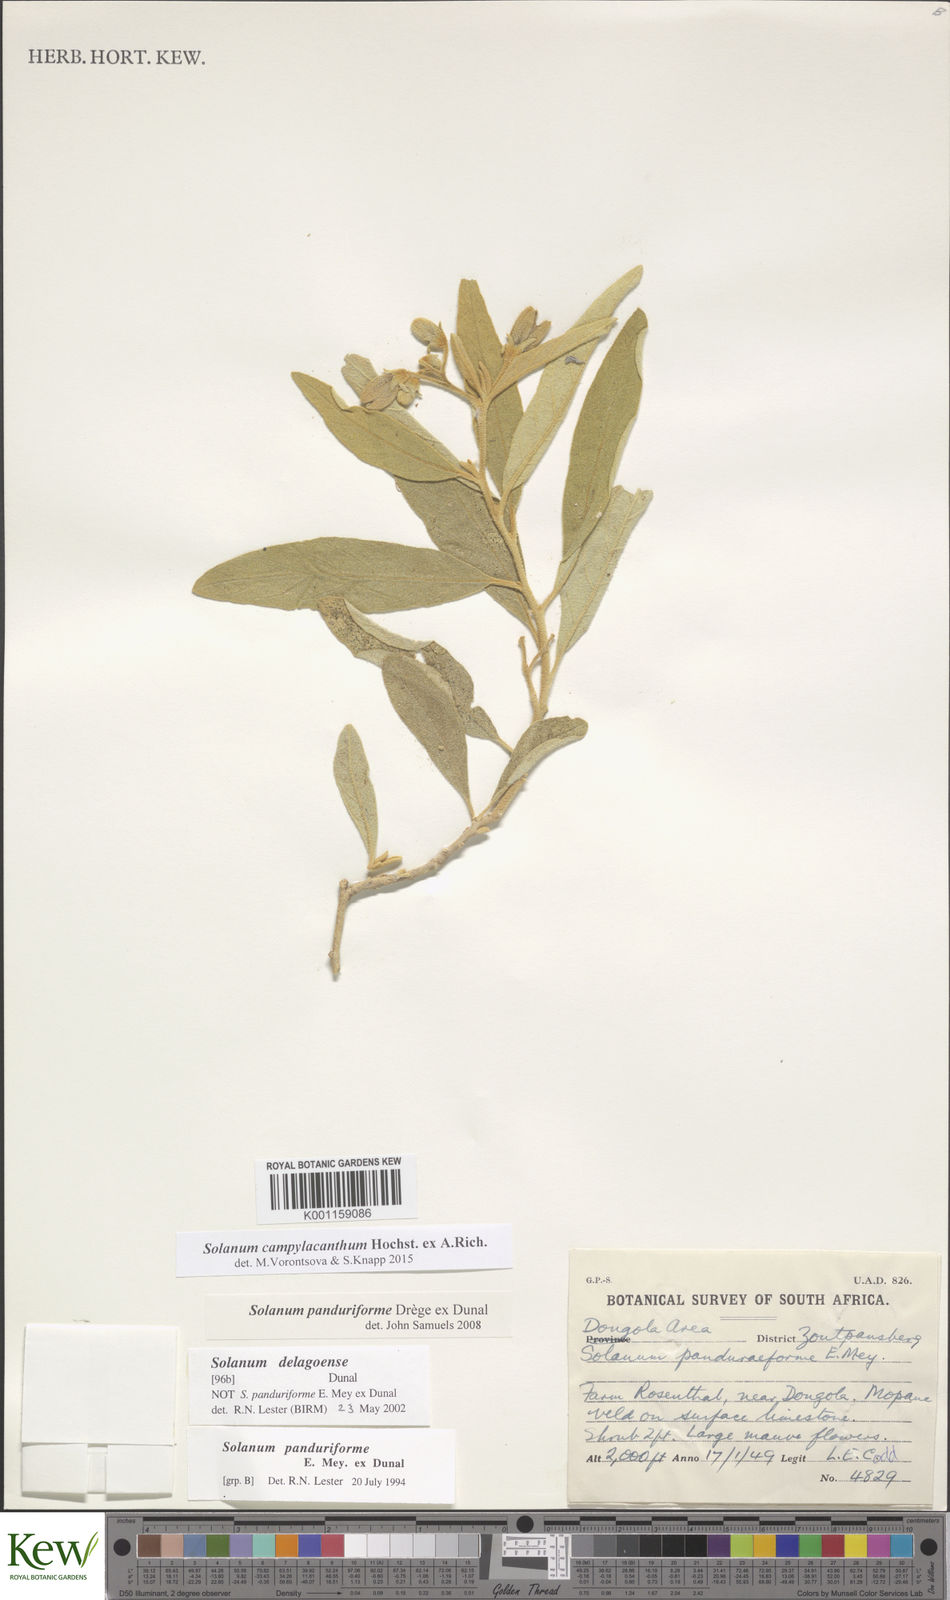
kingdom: Plantae
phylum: Tracheophyta
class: Magnoliopsida
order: Solanales
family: Solanaceae
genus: Solanum
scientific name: Solanum campylacanthum
